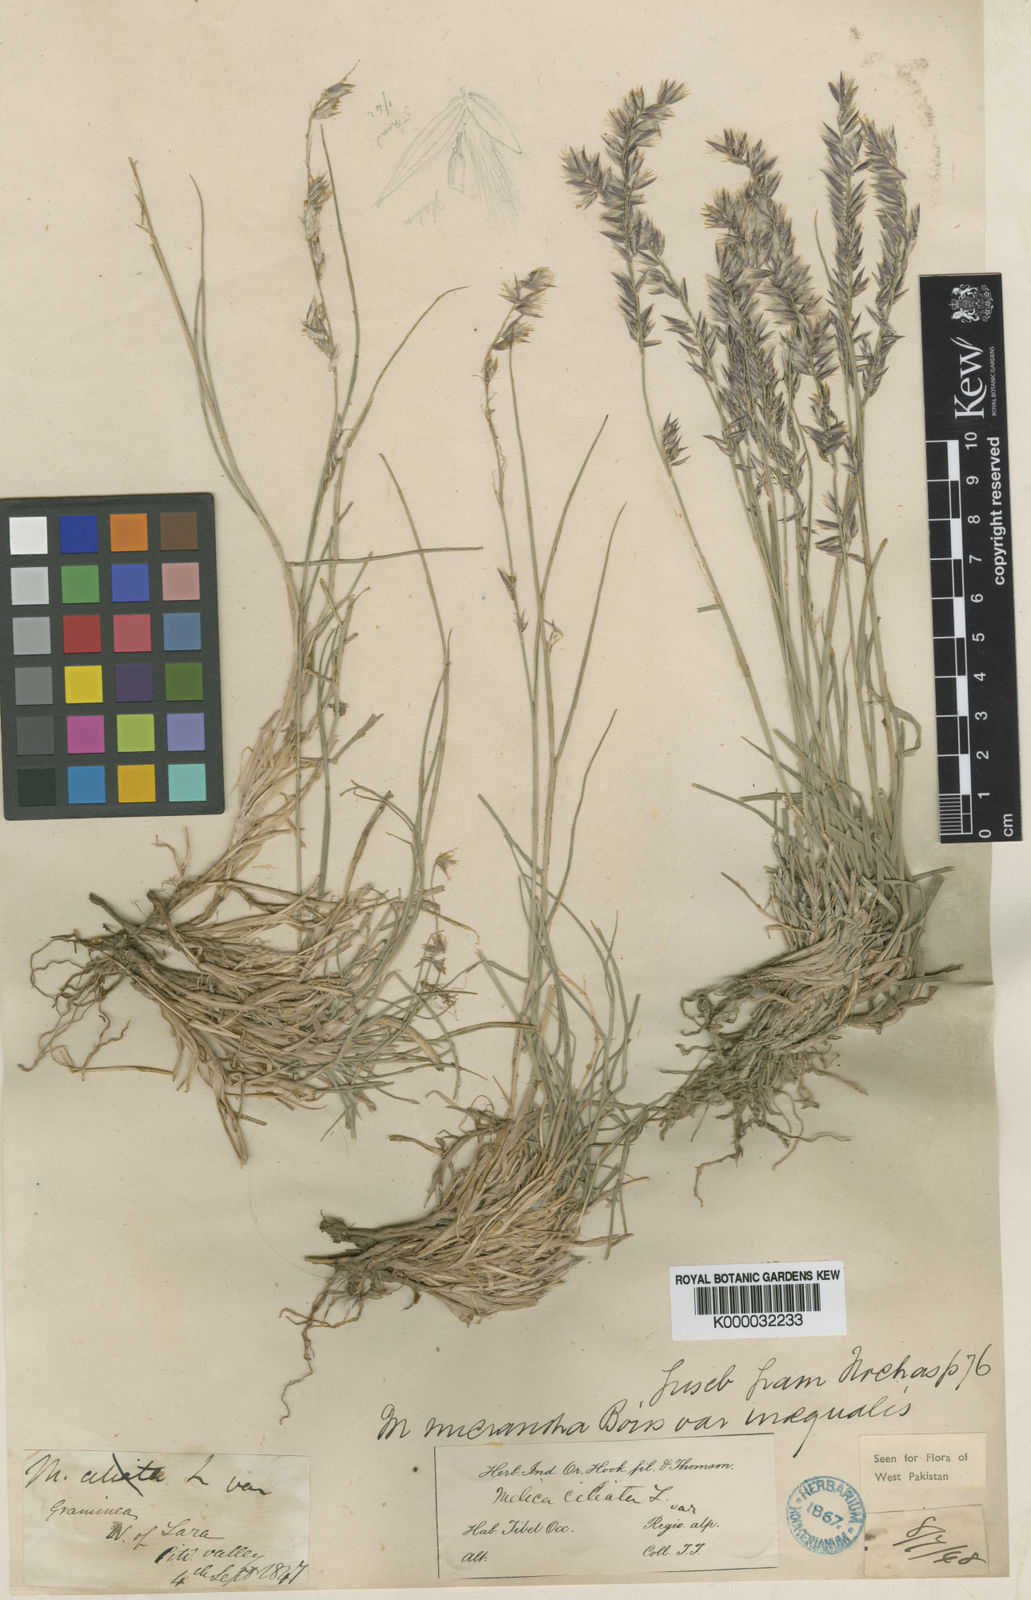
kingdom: Plantae
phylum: Tracheophyta
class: Liliopsida
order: Poales
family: Poaceae
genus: Melica
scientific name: Melica persica
